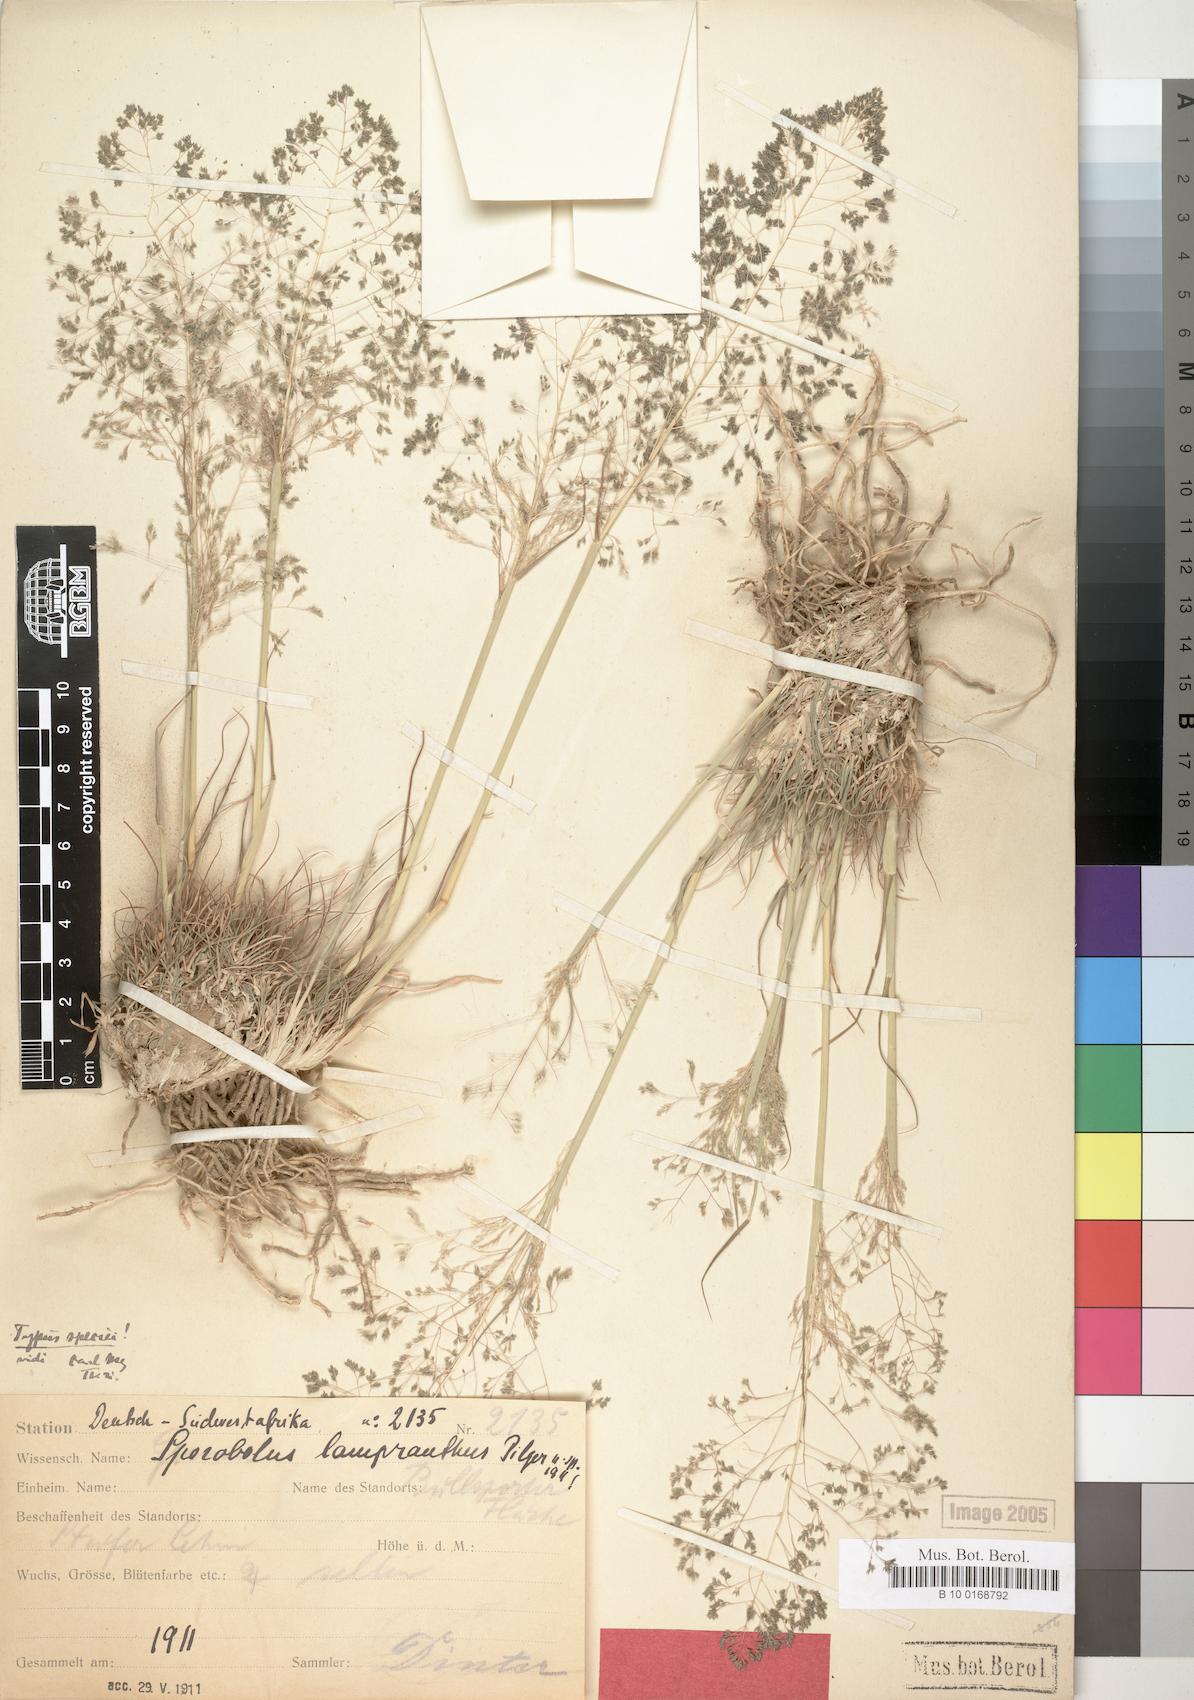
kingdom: Plantae
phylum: Tracheophyta
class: Liliopsida
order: Poales
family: Poaceae
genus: Sporobolus
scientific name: Sporobolus nervosus
